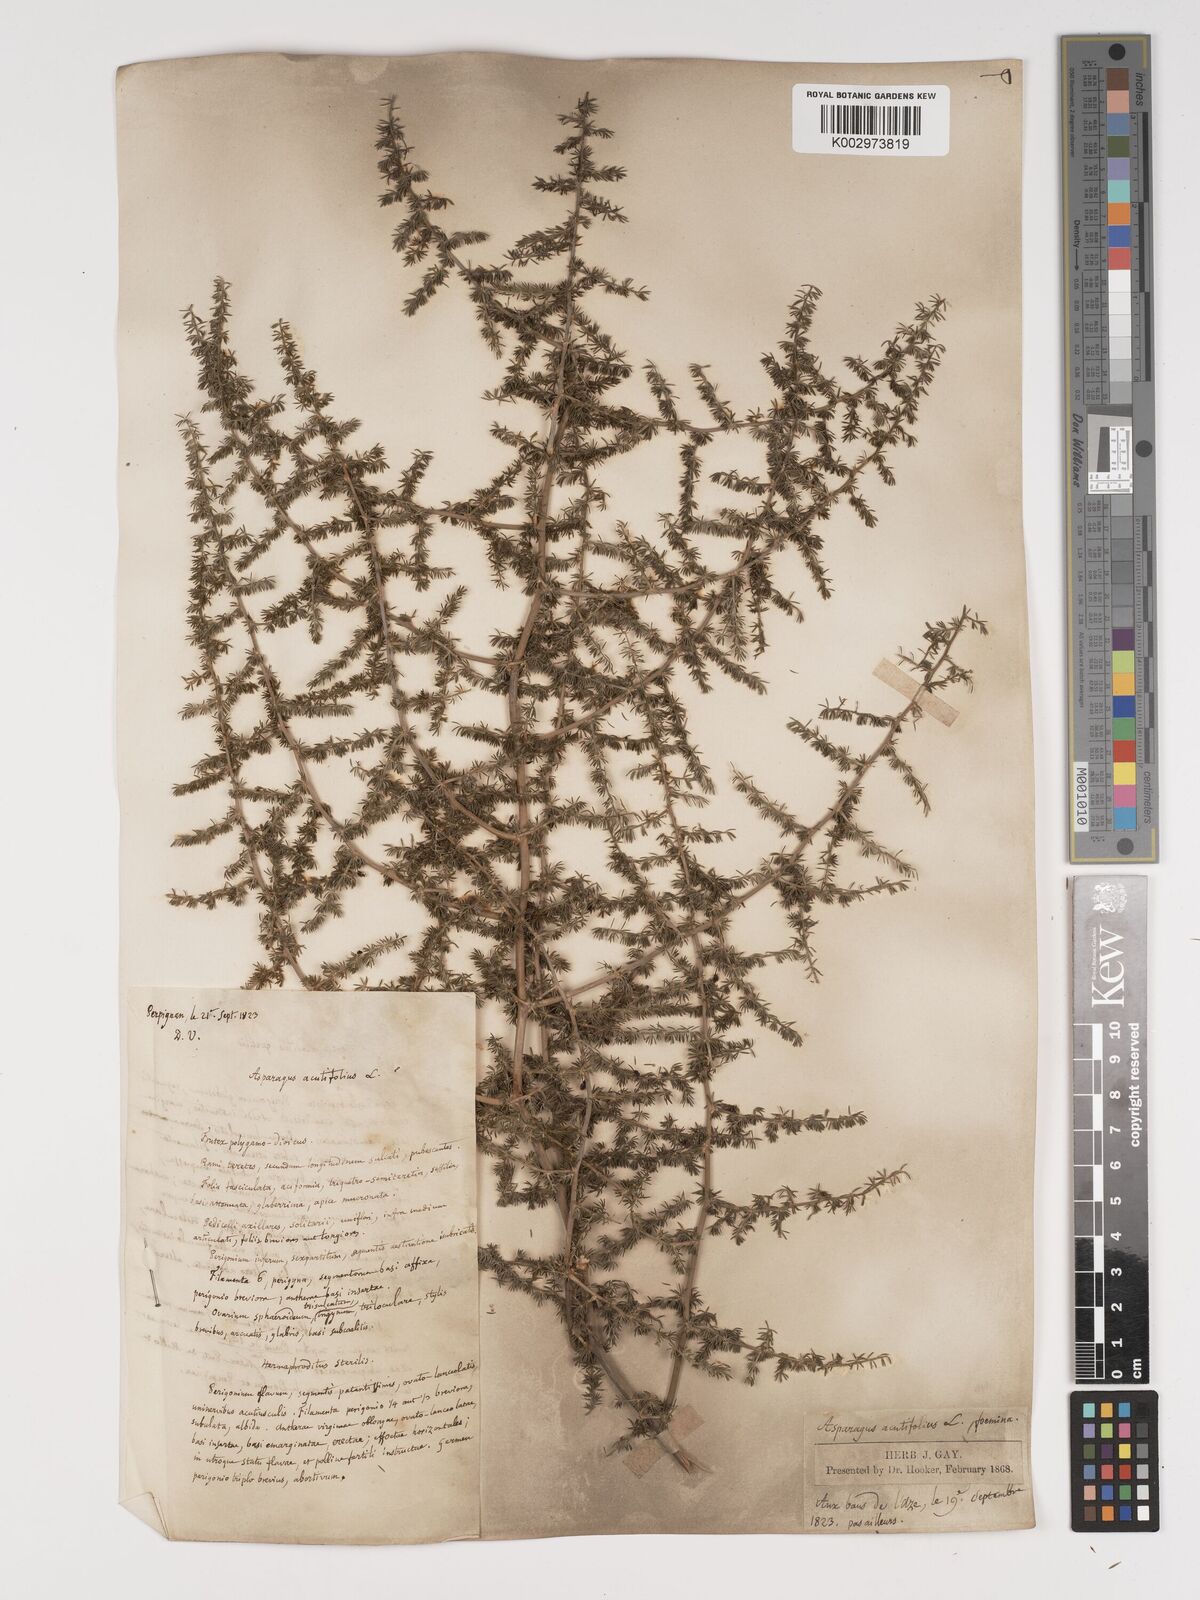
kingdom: Plantae
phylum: Tracheophyta
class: Liliopsida
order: Asparagales
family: Asparagaceae
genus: Asparagus
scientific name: Asparagus aethiopicus
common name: Sprenger's asparagus fern
